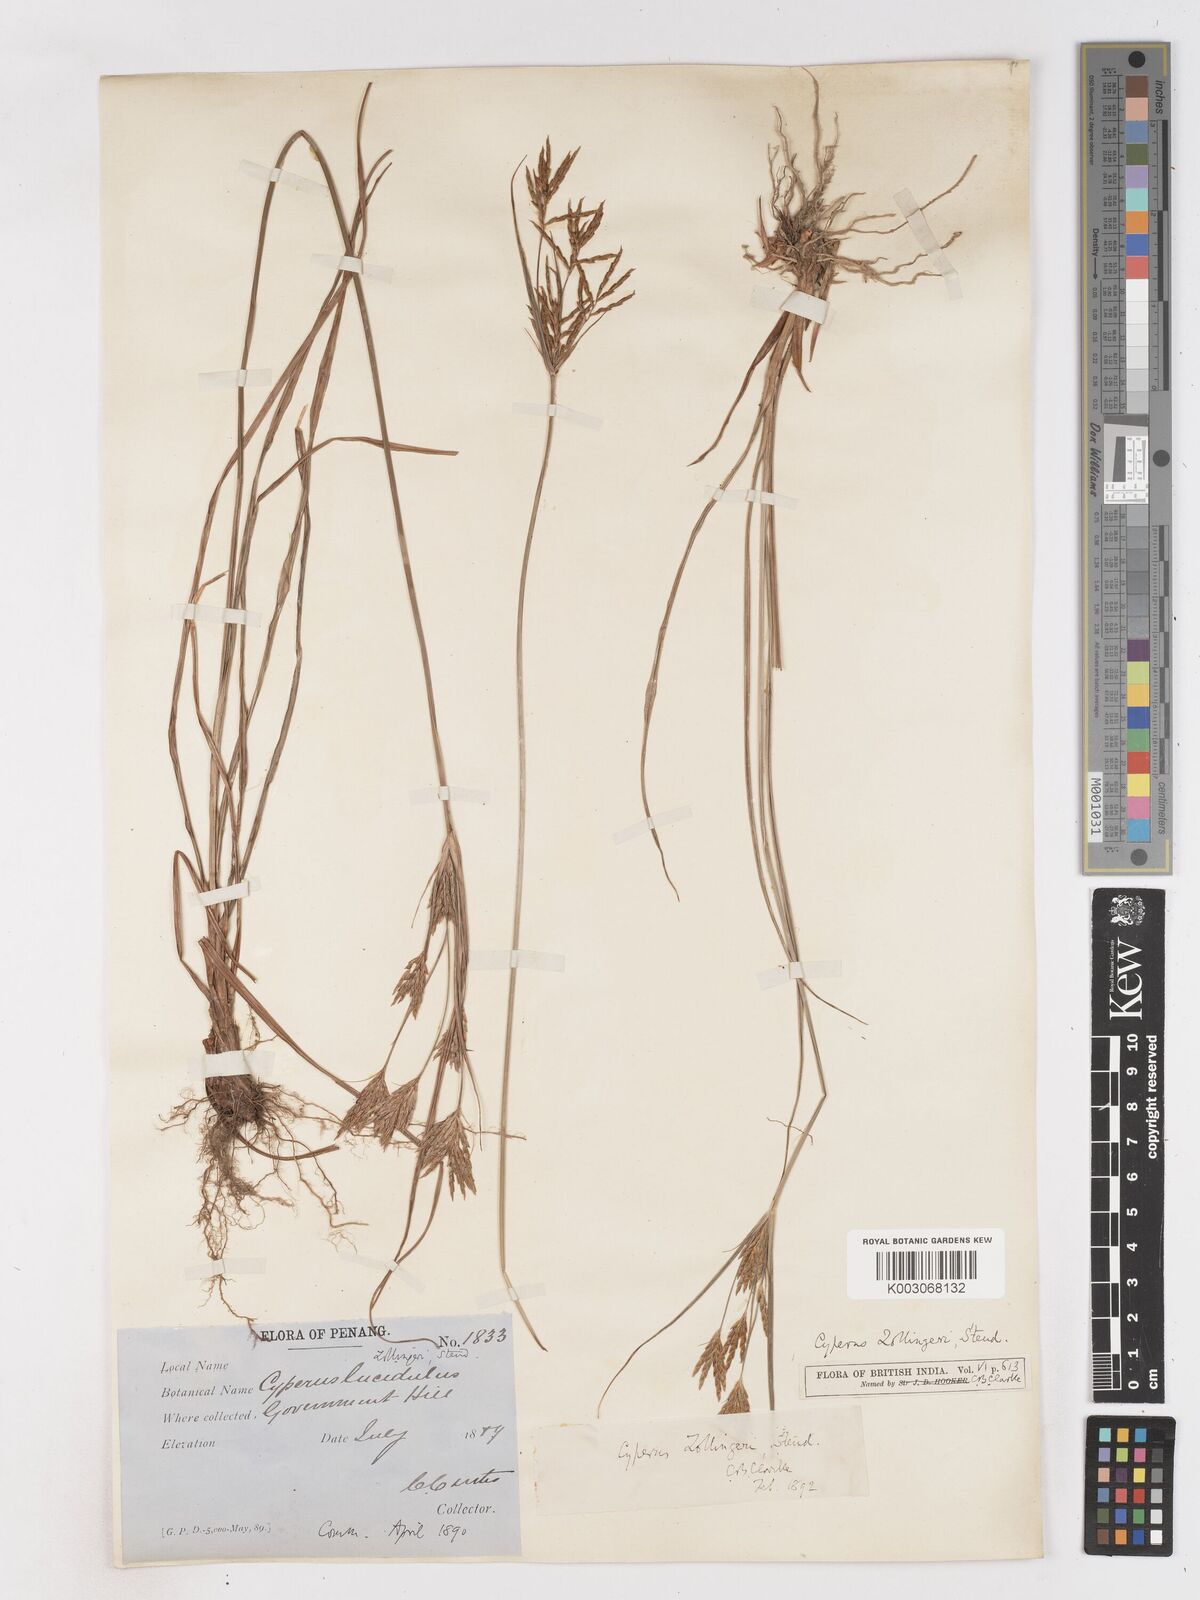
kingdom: Plantae
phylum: Tracheophyta
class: Liliopsida
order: Poales
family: Cyperaceae
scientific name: Cyperaceae
